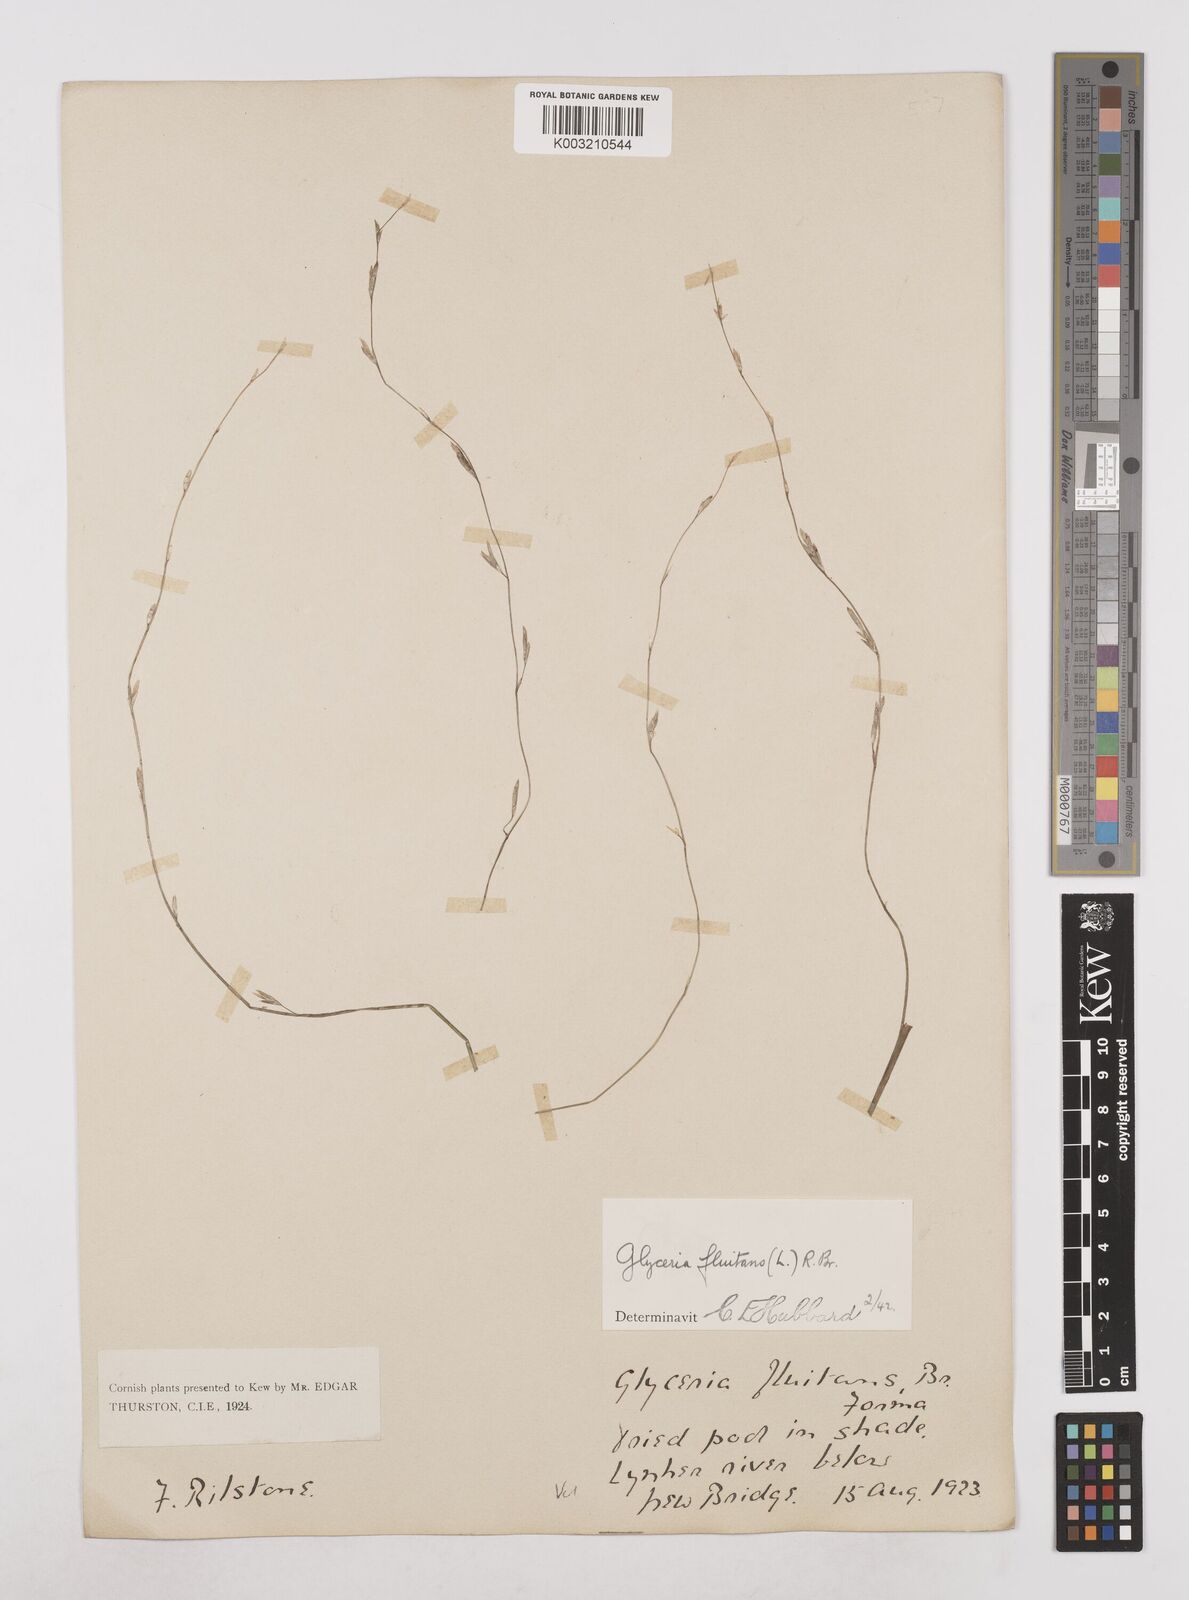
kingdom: Plantae
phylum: Tracheophyta
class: Liliopsida
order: Poales
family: Poaceae
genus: Glyceria
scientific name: Glyceria fluitans
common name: Floating sweet-grass
